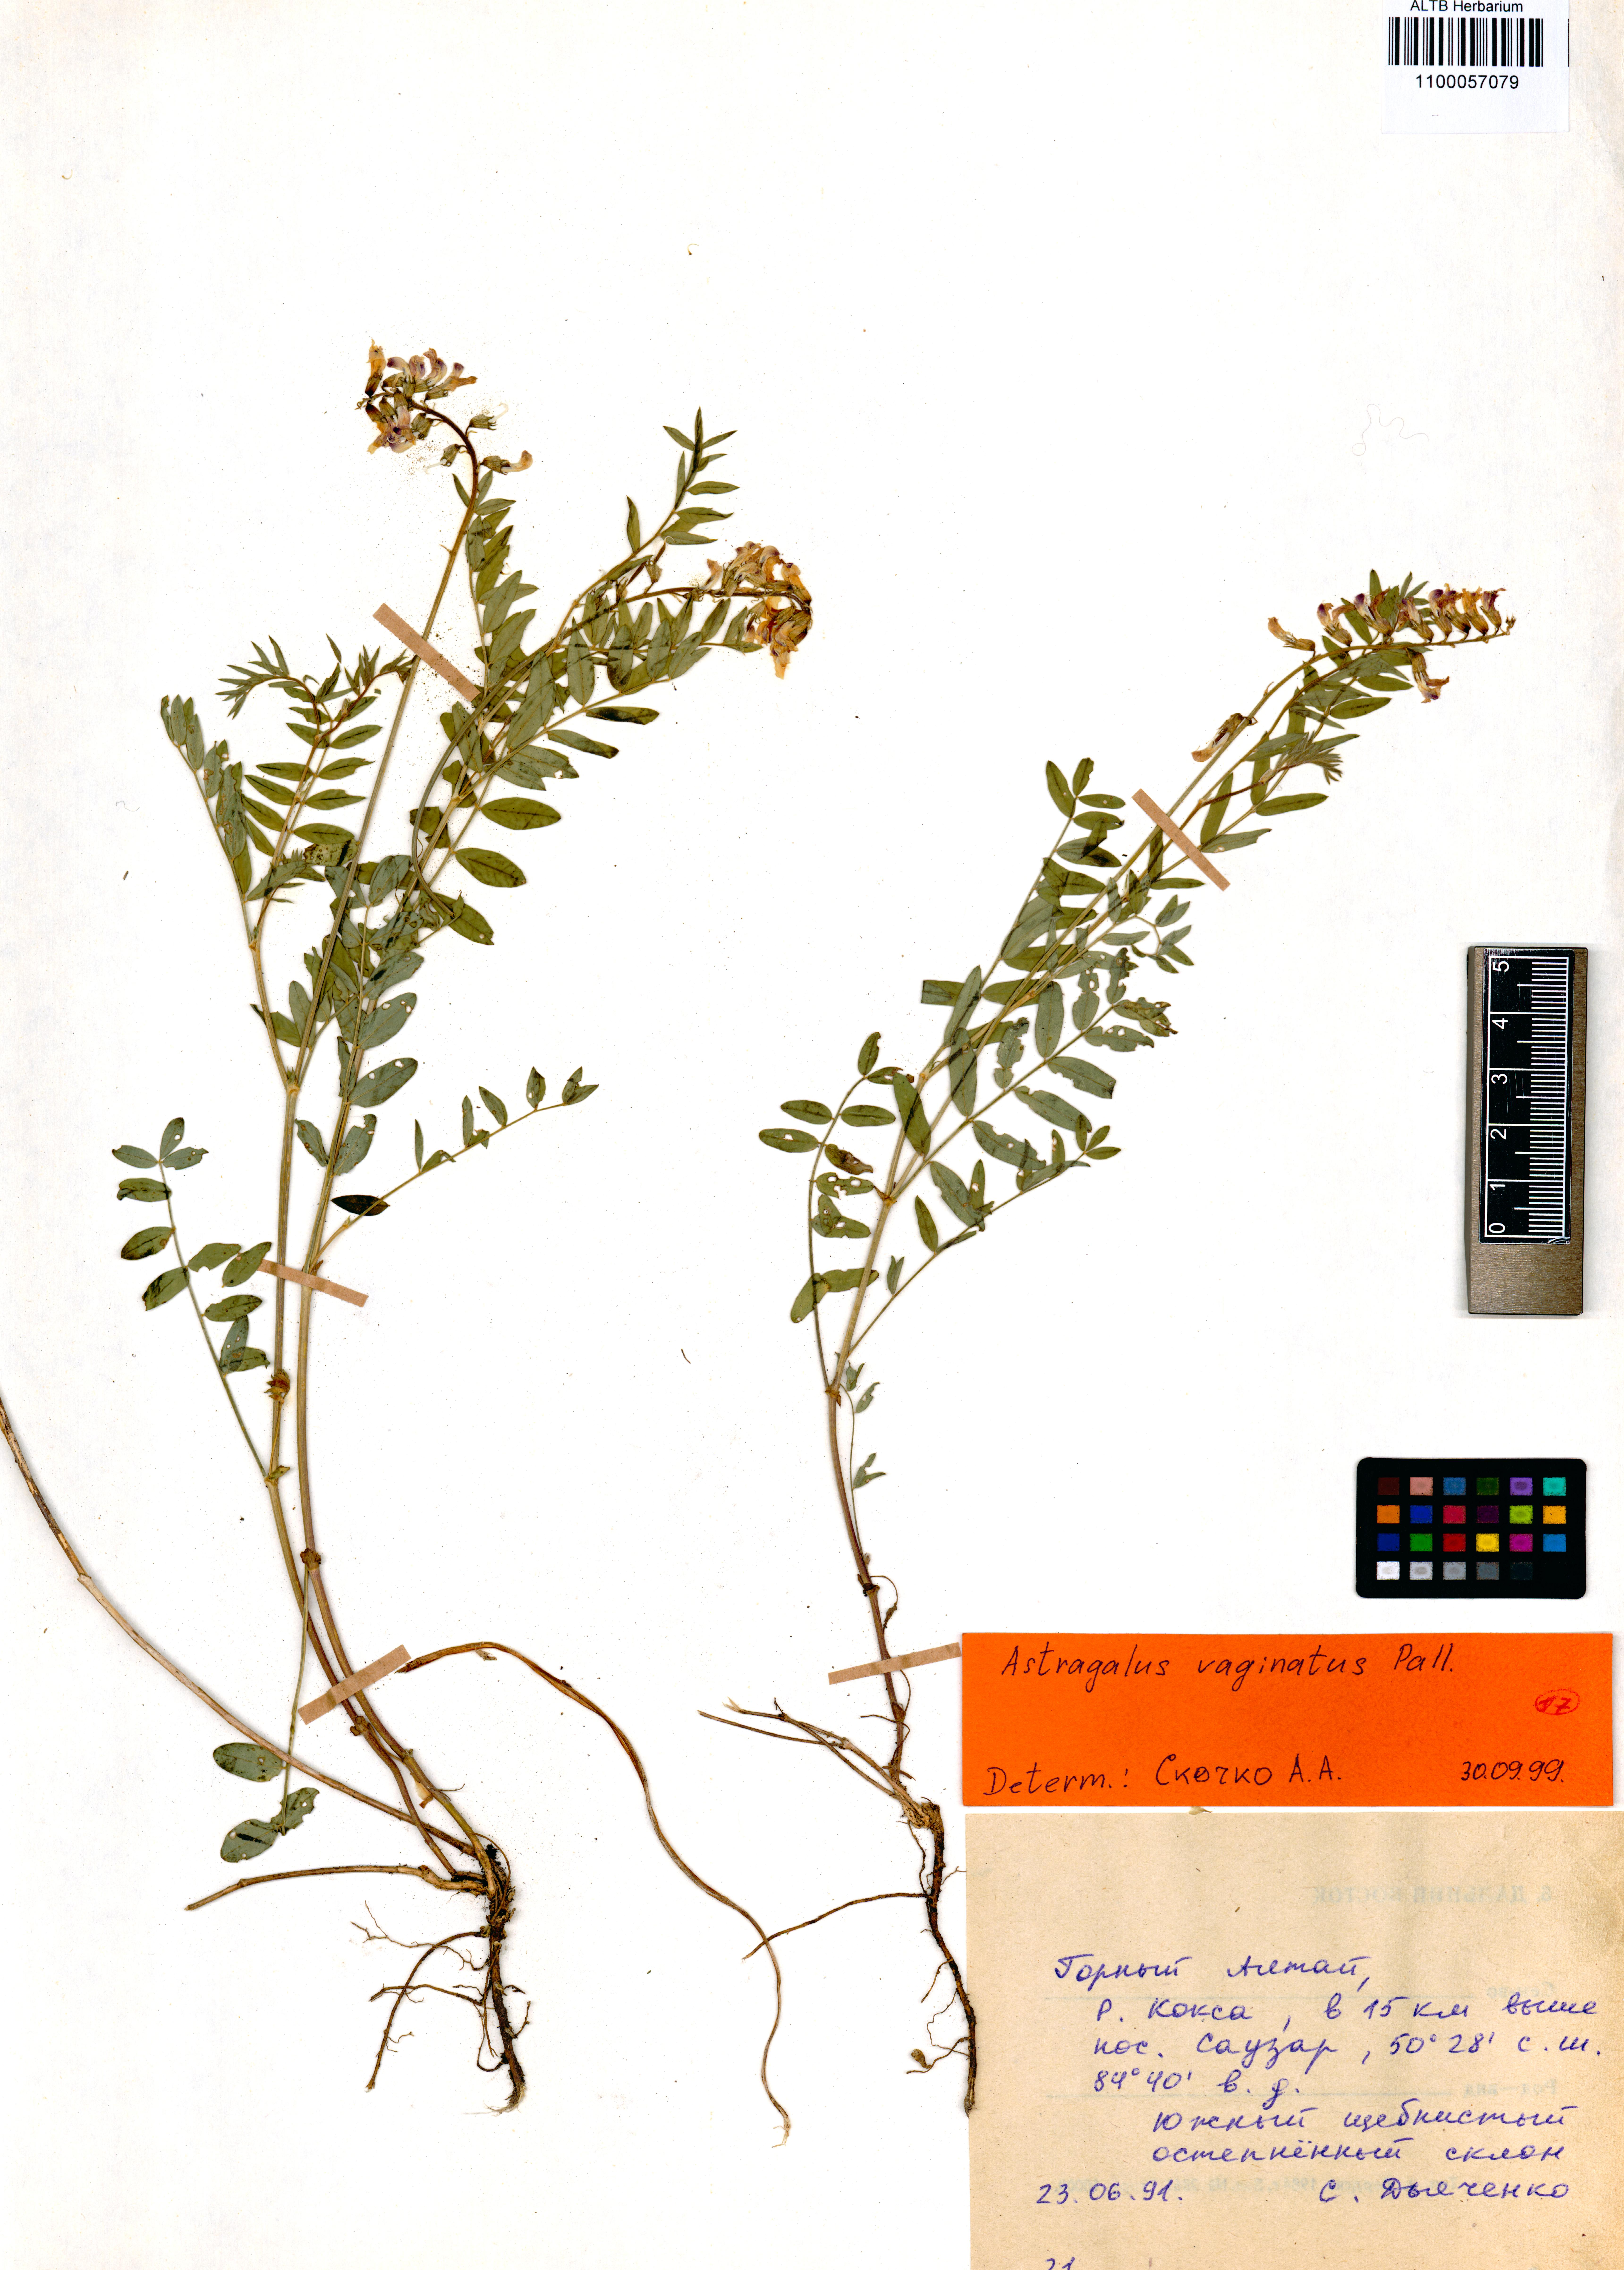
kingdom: Plantae
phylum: Tracheophyta
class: Magnoliopsida
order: Fabales
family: Fabaceae
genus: Astragalus
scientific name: Astragalus vaginatus
